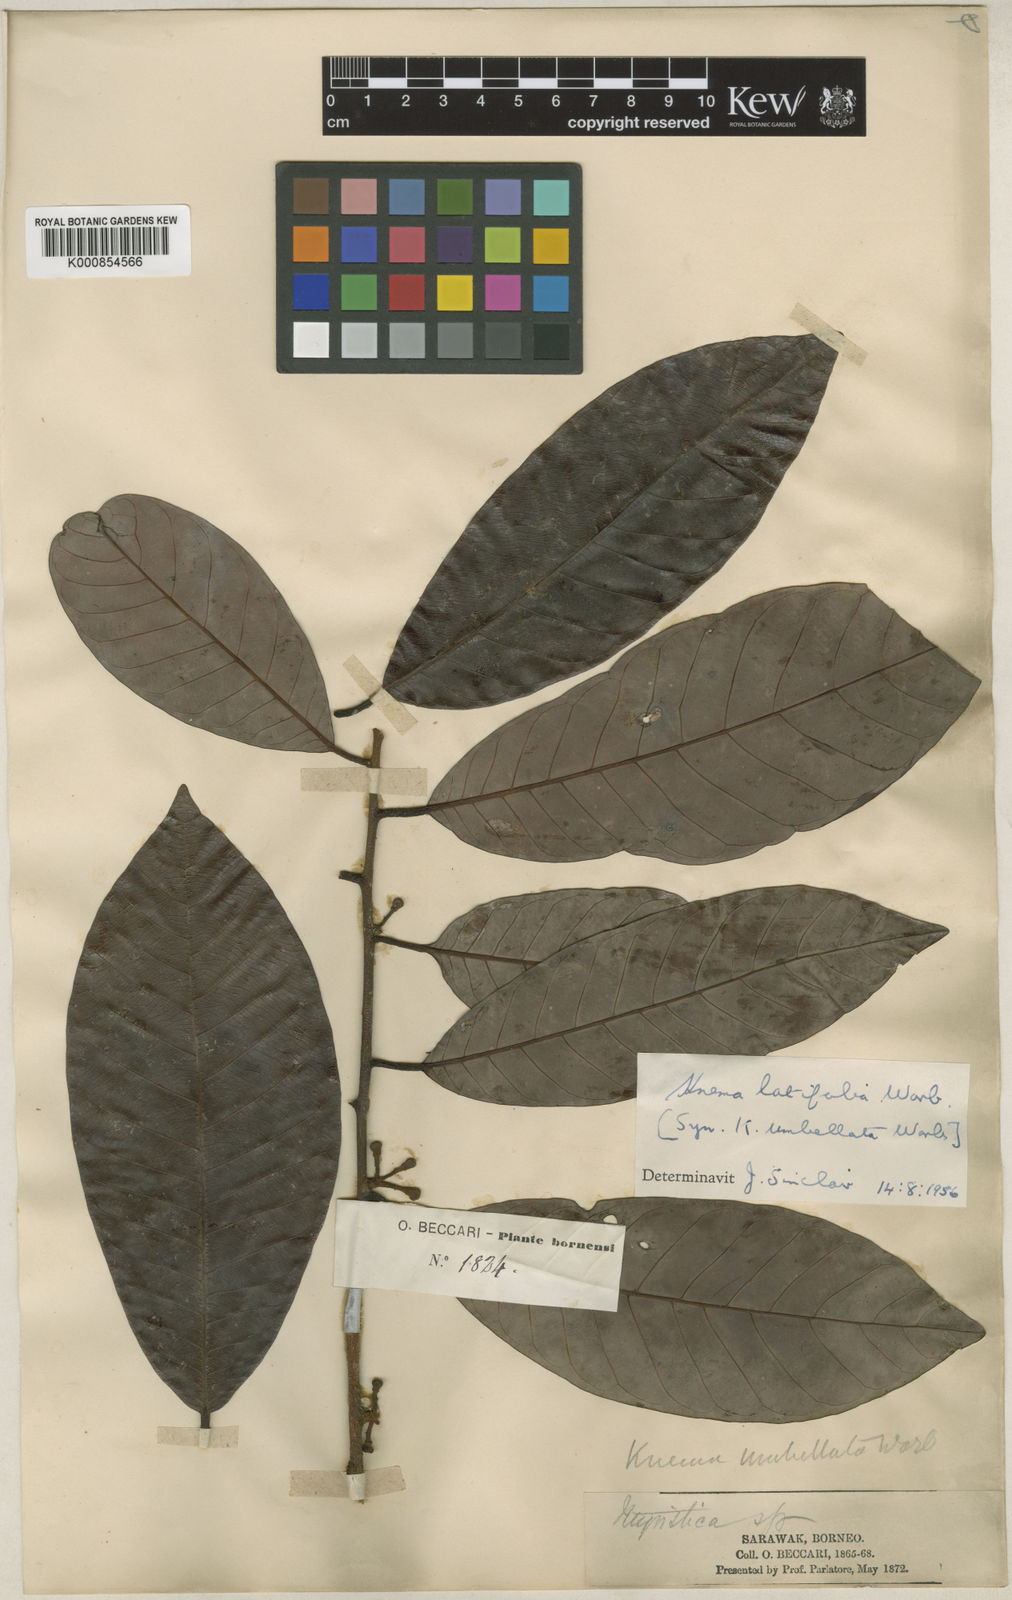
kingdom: Plantae
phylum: Tracheophyta
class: Magnoliopsida
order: Magnoliales
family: Myristicaceae
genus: Knema
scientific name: Knema latifolia
